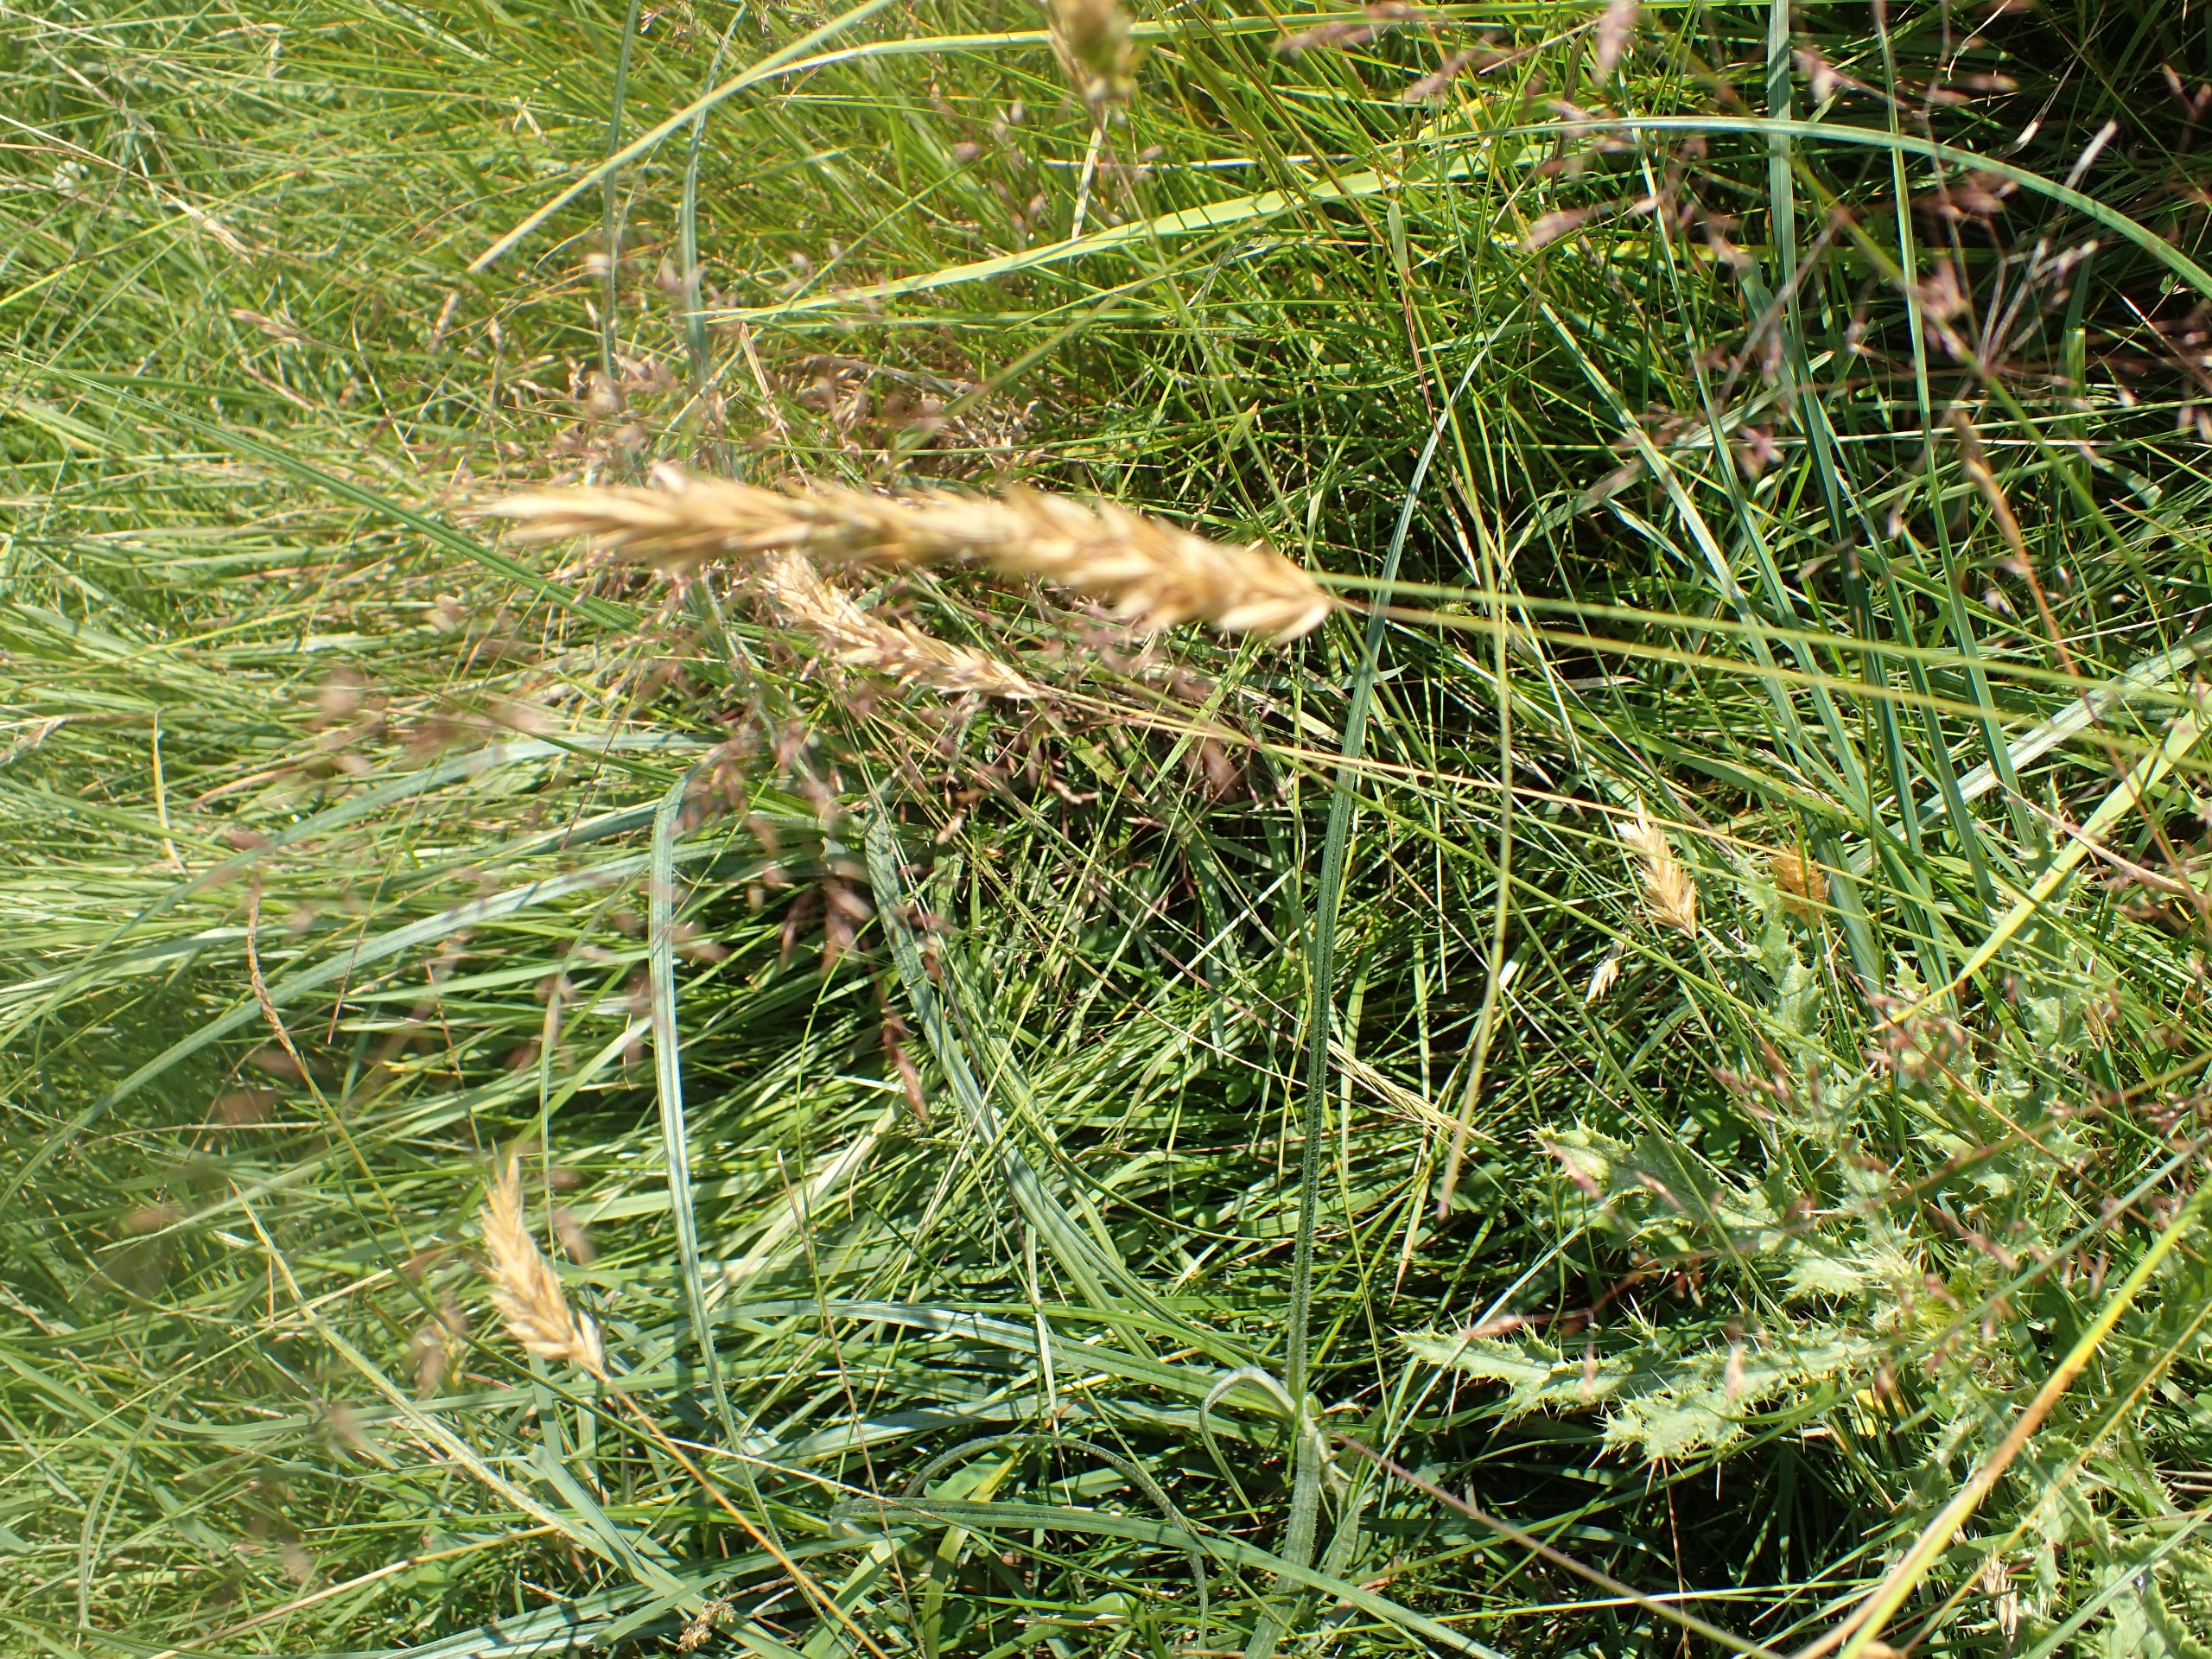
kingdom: Plantae
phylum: Tracheophyta
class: Liliopsida
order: Poales
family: Poaceae
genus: Anthoxanthum
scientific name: Anthoxanthum odoratum
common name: Vellugtende gulaks
